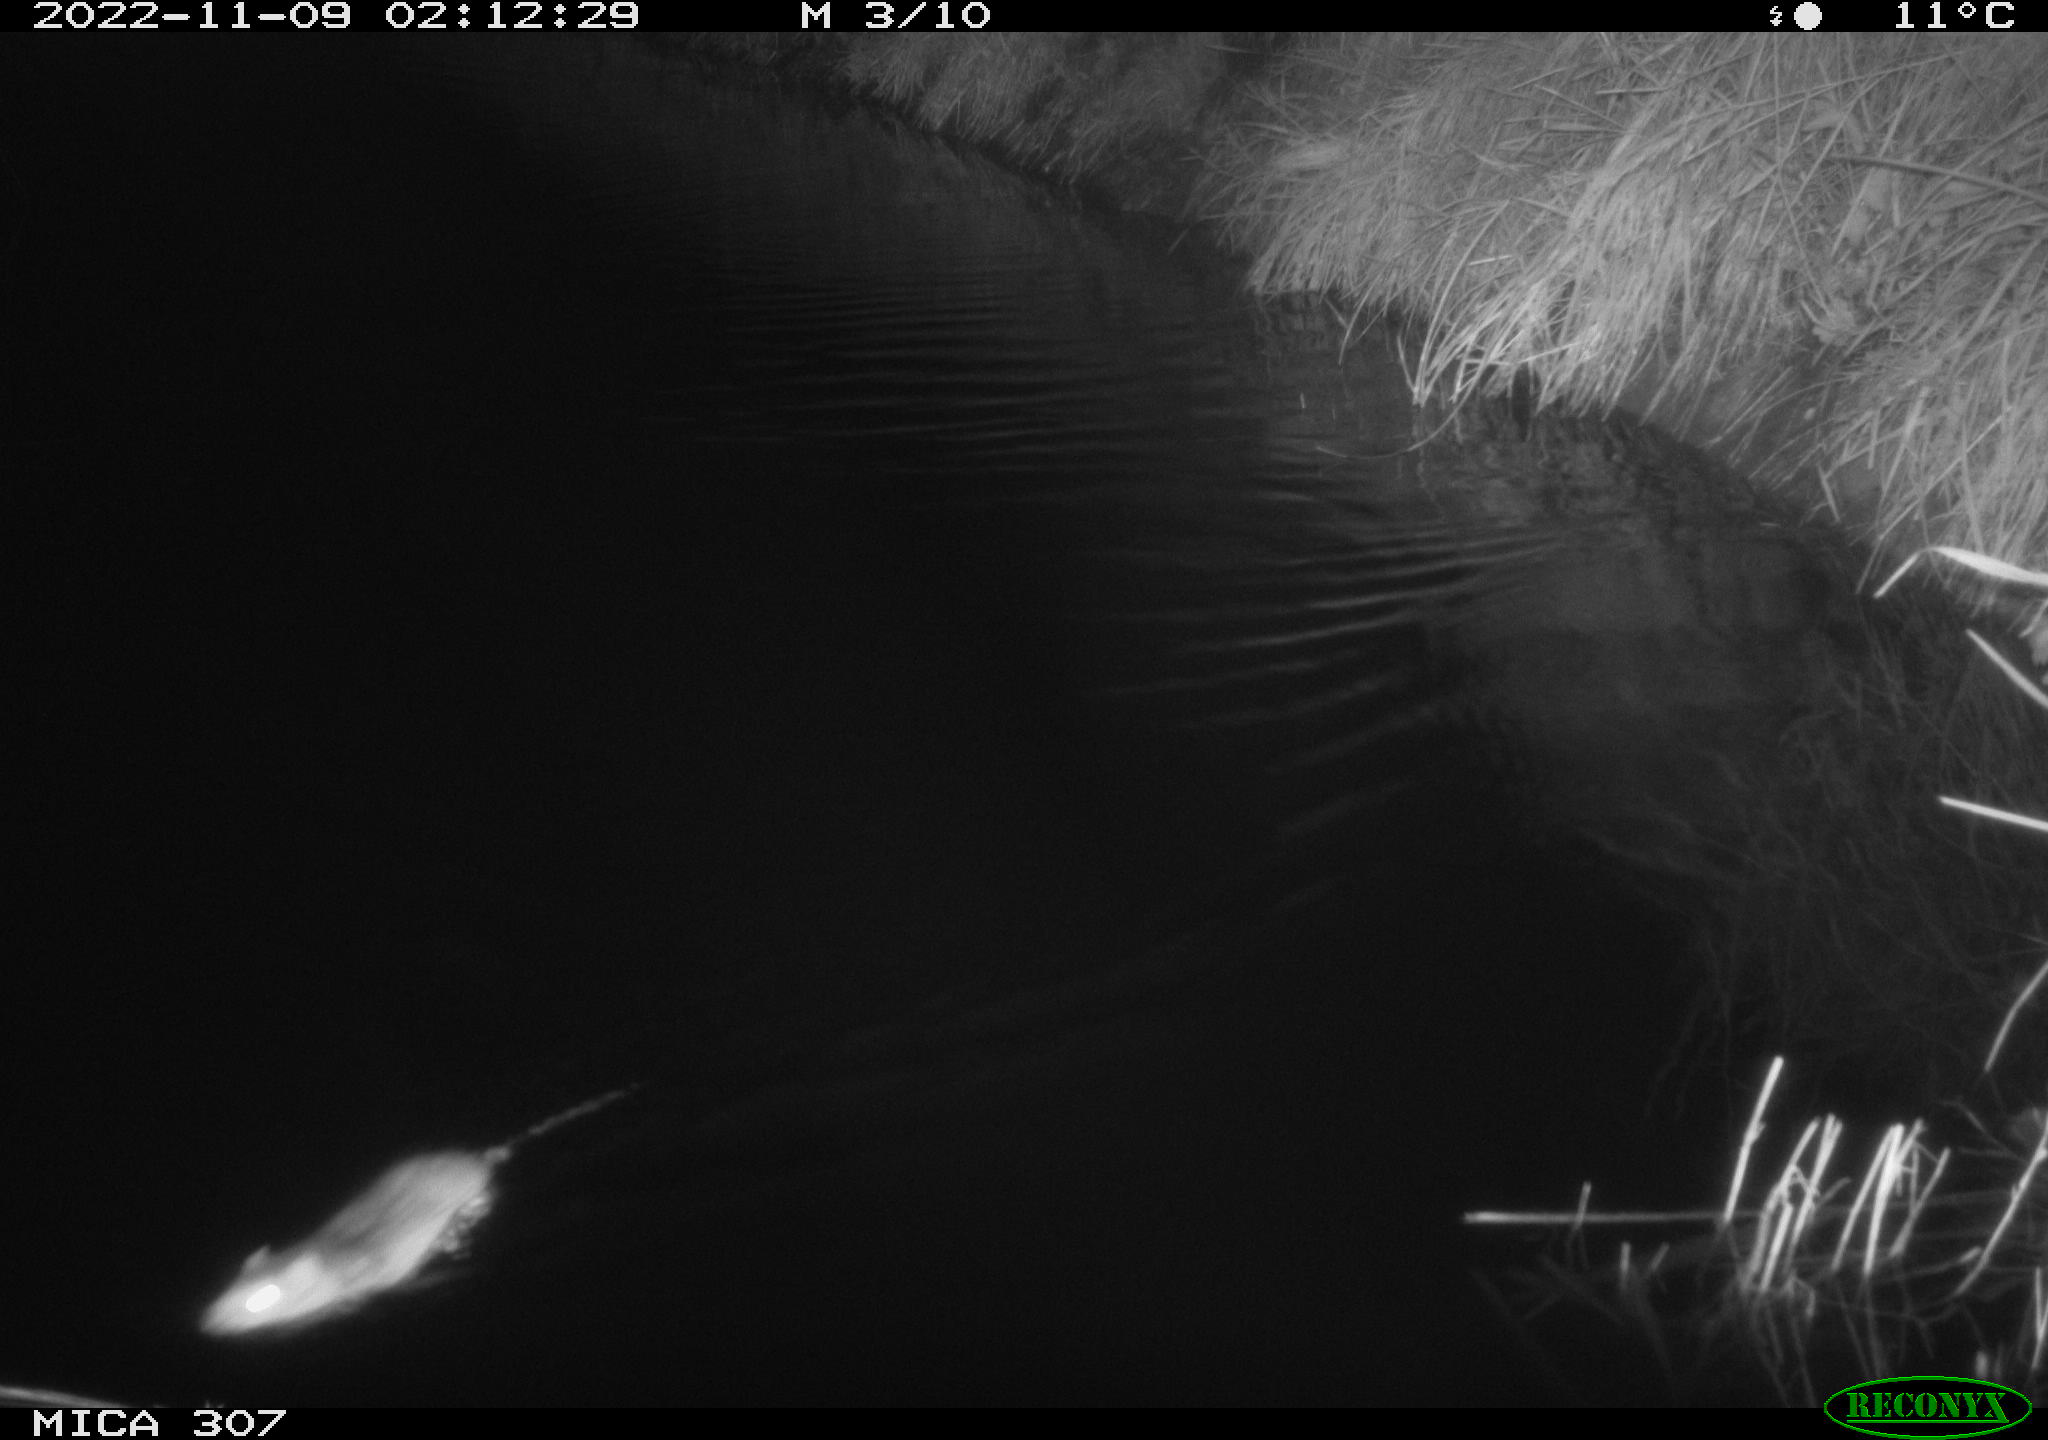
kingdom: Animalia
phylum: Chordata
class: Mammalia
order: Rodentia
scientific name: Rodentia
